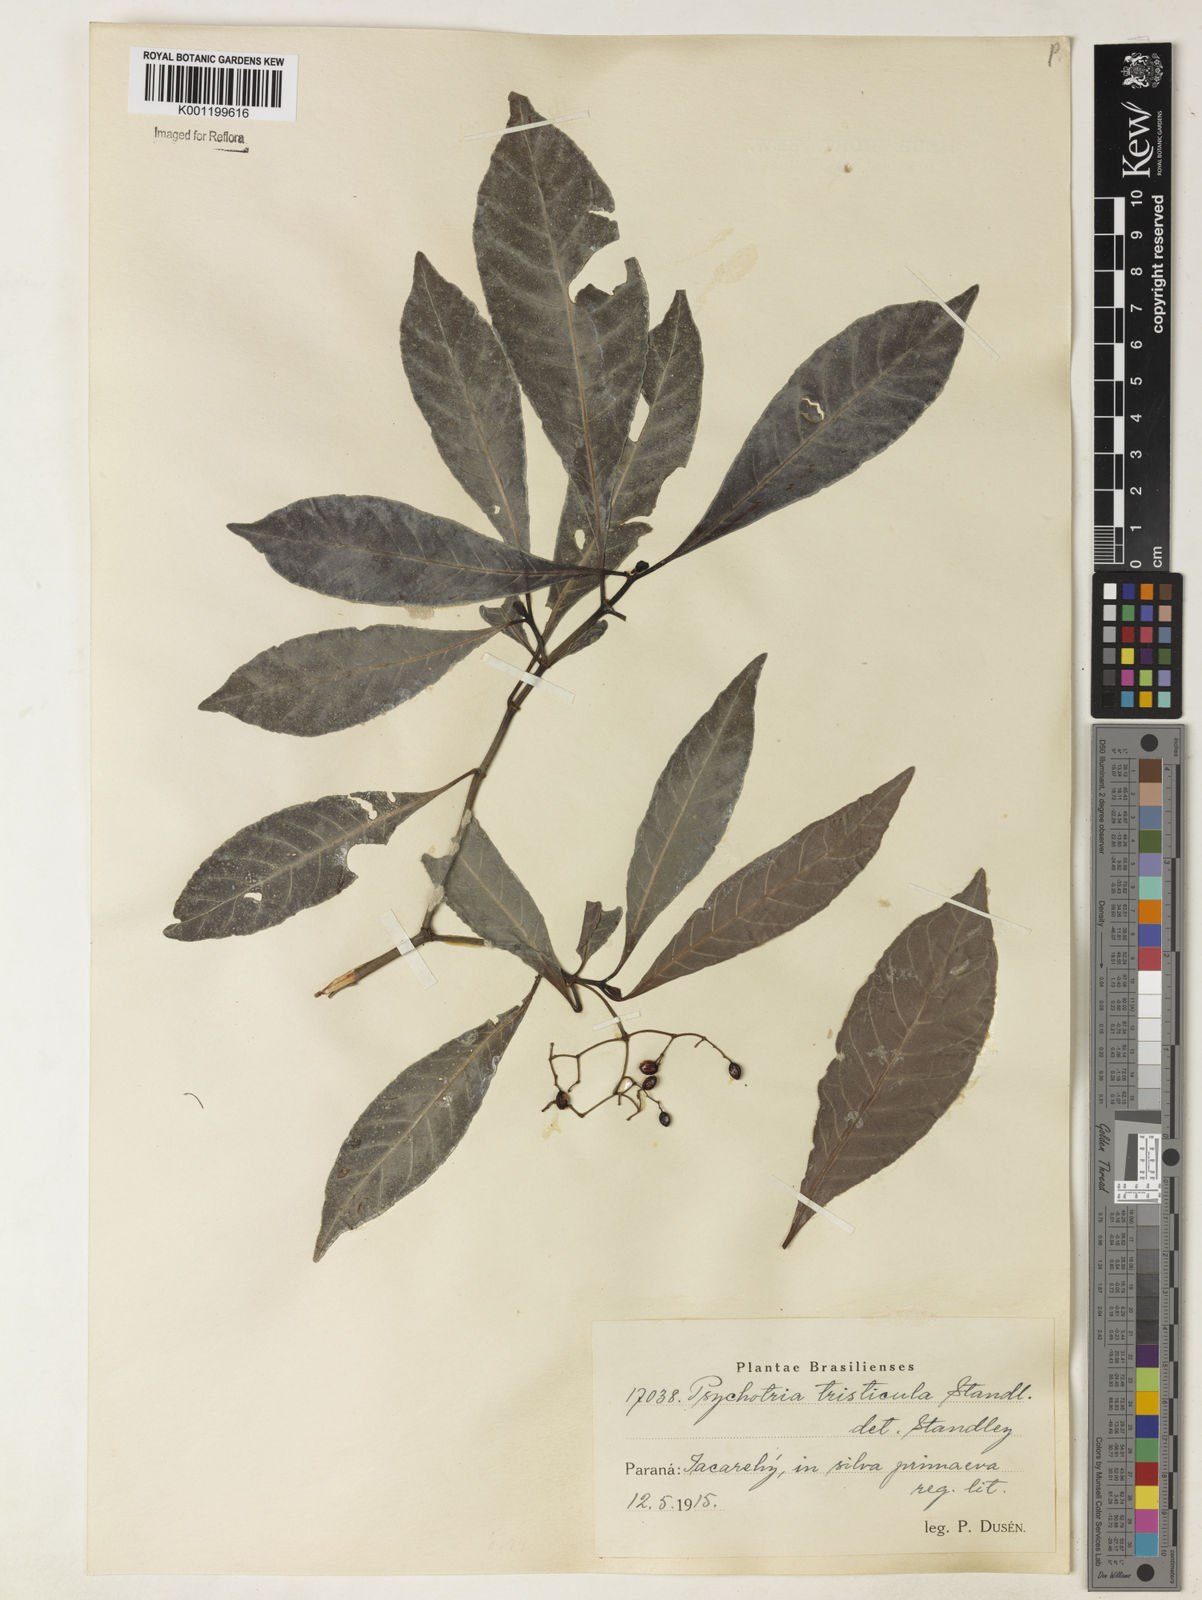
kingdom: Plantae
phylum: Tracheophyta
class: Magnoliopsida
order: Gentianales
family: Rubiaceae
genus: Psychotria
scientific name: Psychotria carthagenensis
